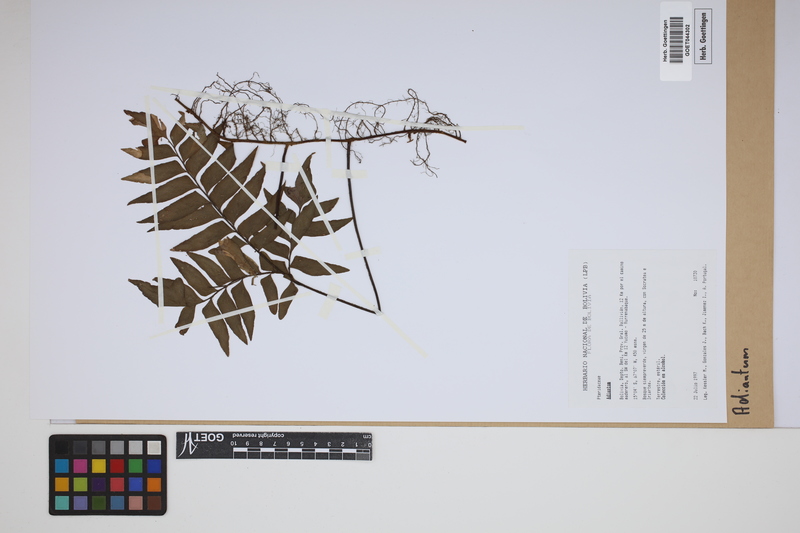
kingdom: Plantae
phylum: Tracheophyta
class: Polypodiopsida
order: Polypodiales
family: Pteridaceae
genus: Adiantum
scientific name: Adiantum
